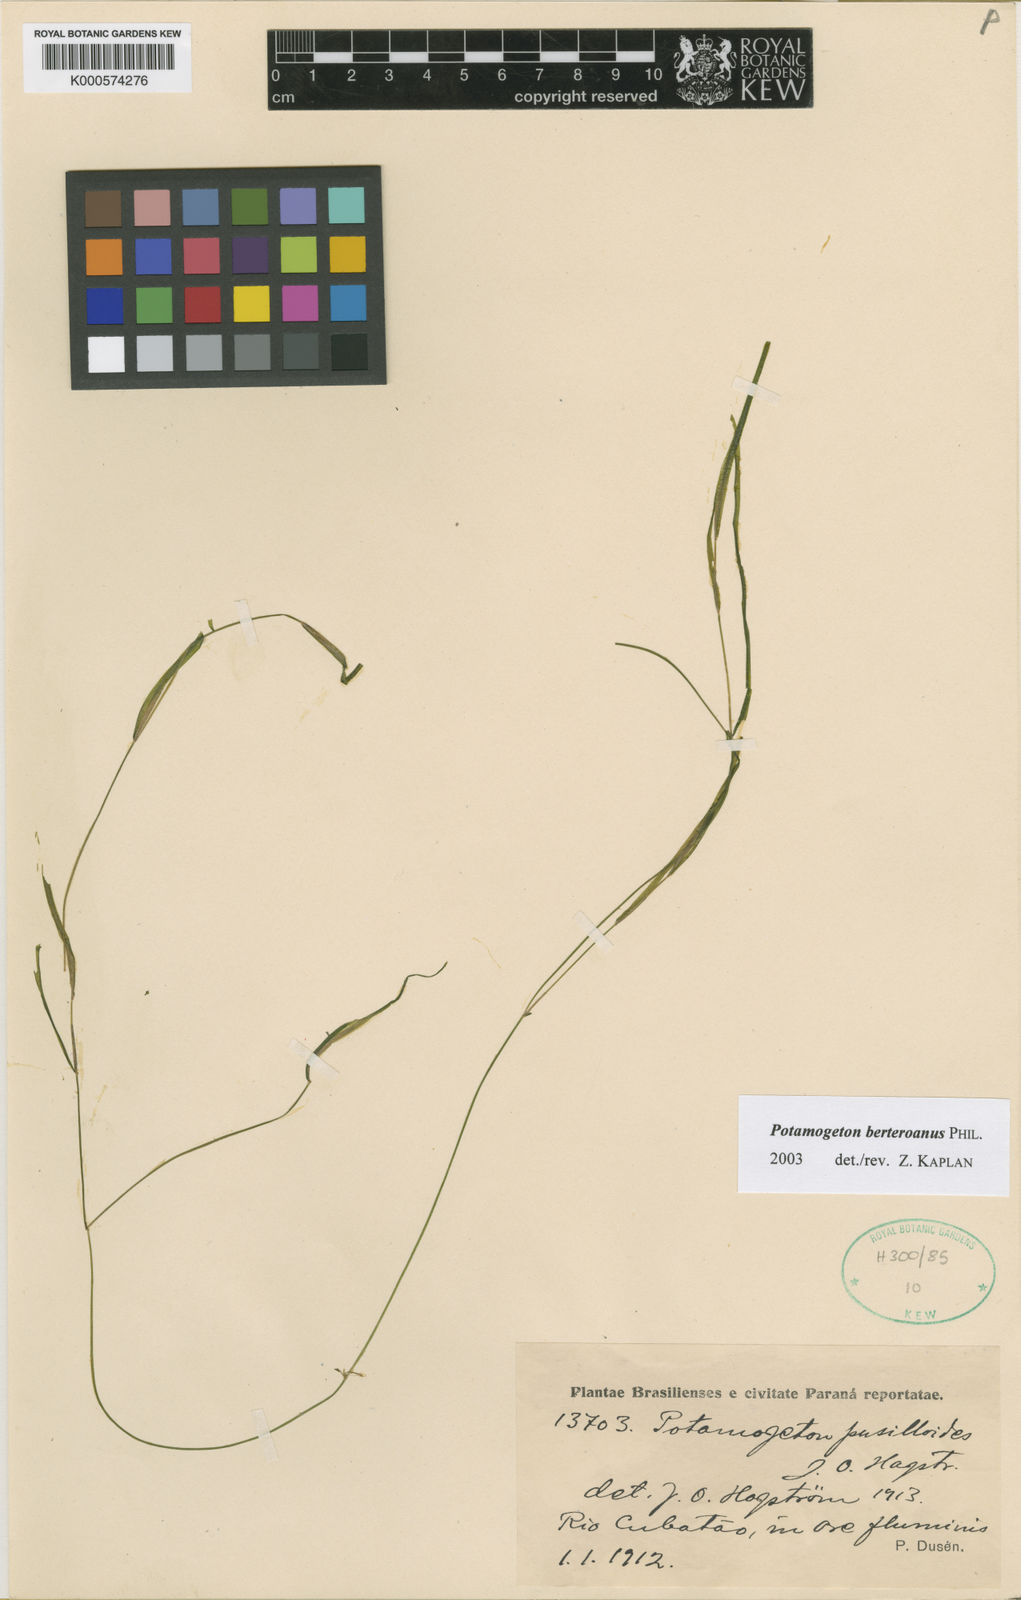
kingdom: Plantae
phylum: Tracheophyta
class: Liliopsida
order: Alismatales
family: Potamogetonaceae
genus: Potamogeton
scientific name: Potamogeton pusillus
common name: Lesser pondweed
